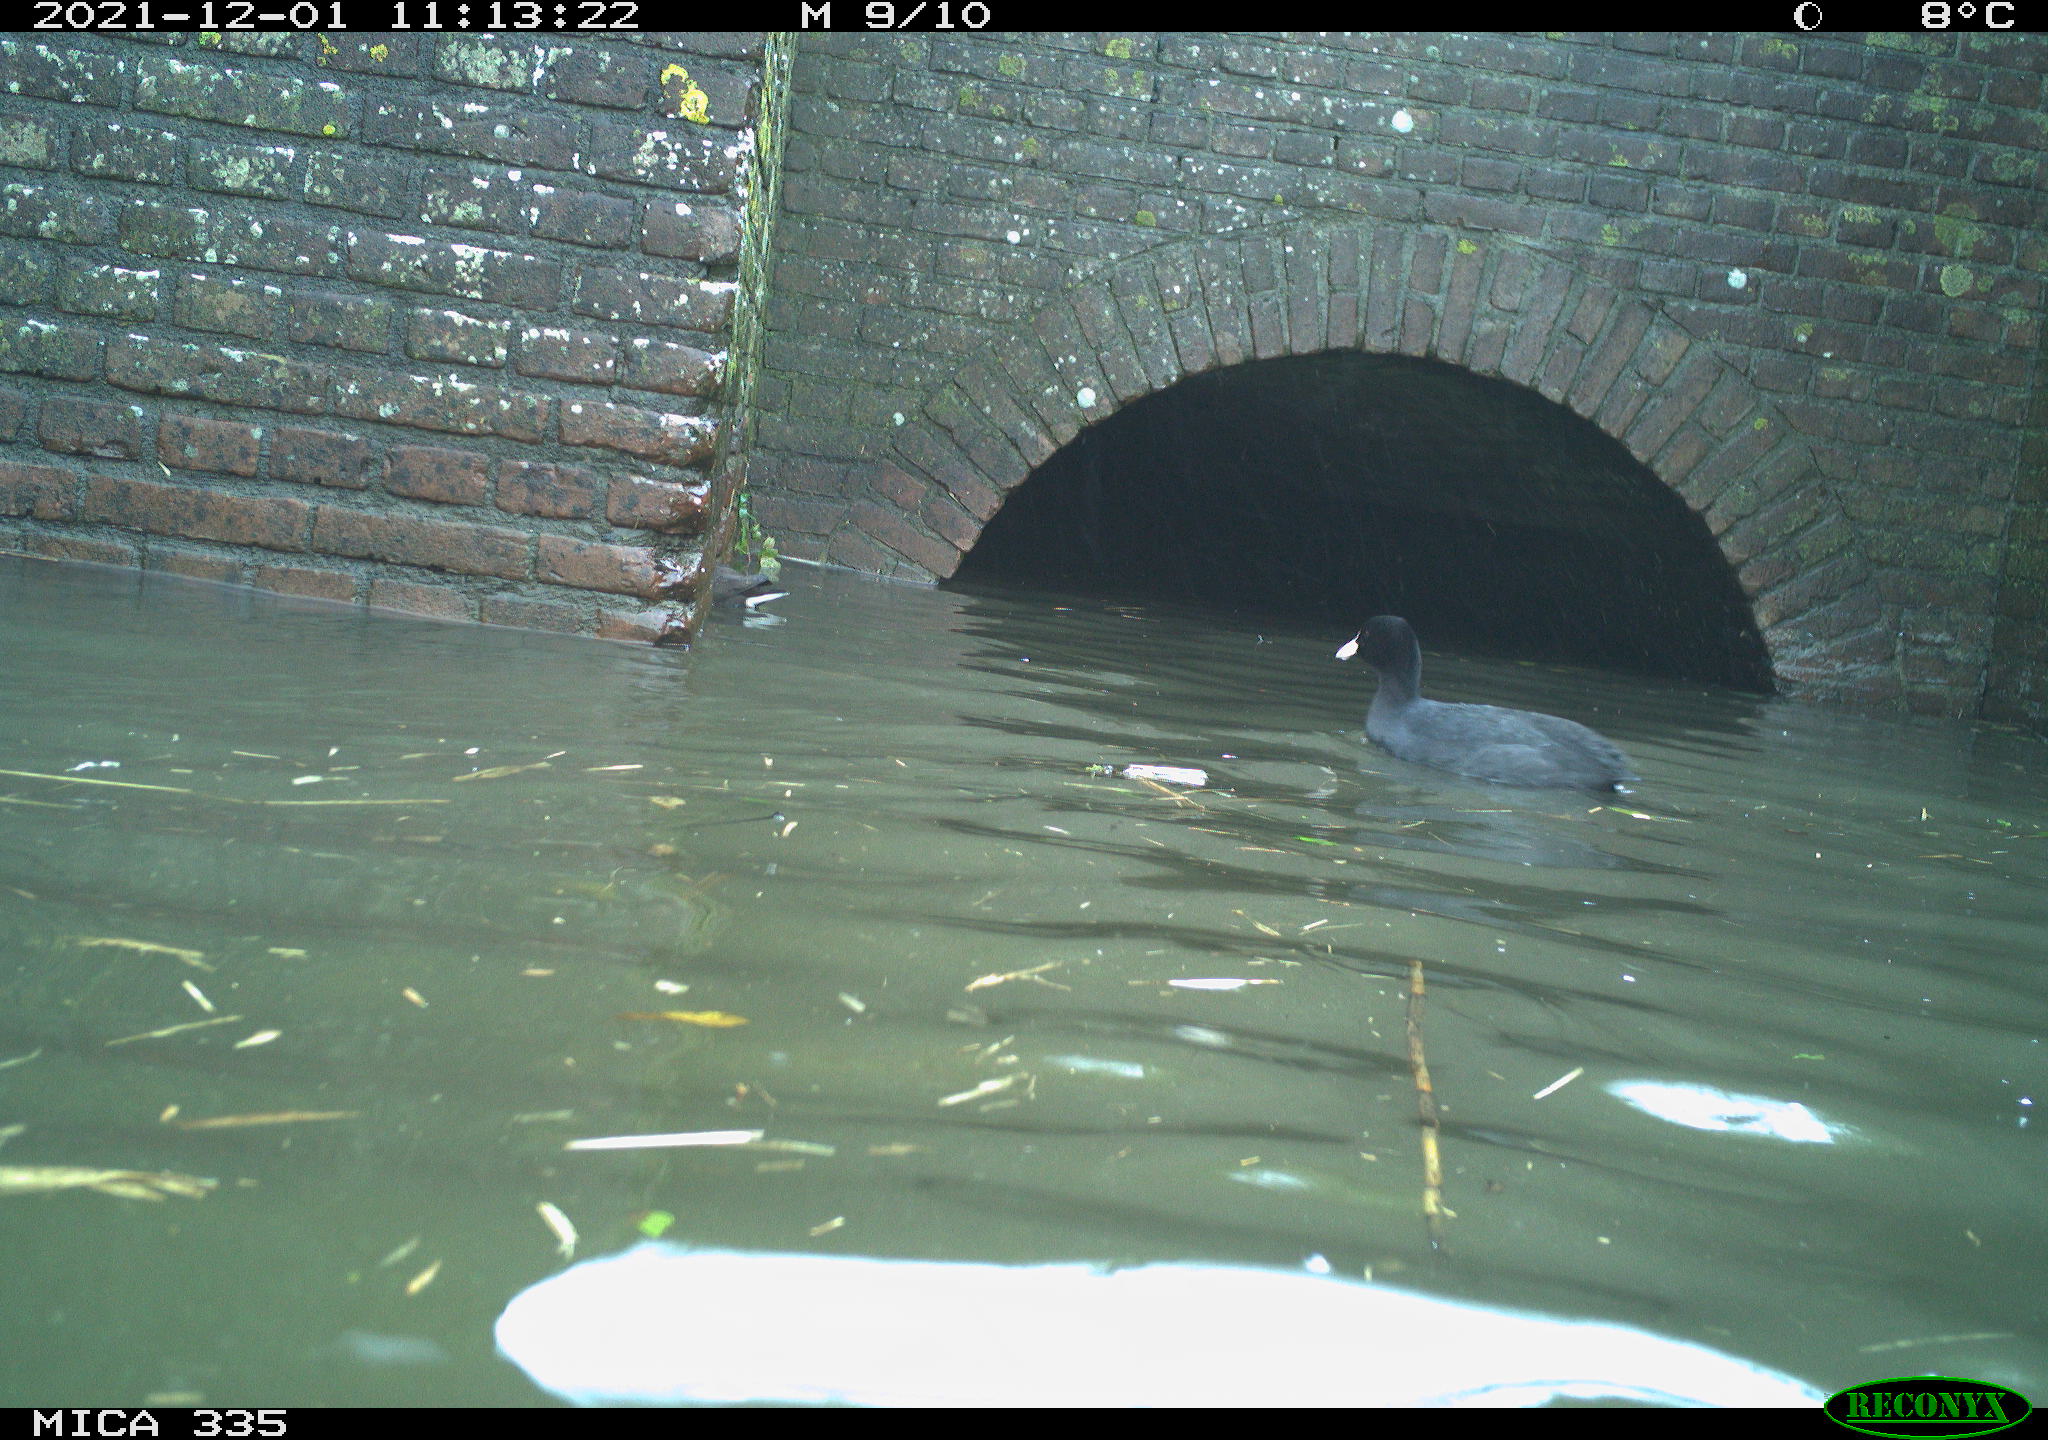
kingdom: Animalia
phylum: Chordata
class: Aves
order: Gruiformes
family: Rallidae
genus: Fulica
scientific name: Fulica atra
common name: Eurasian coot
